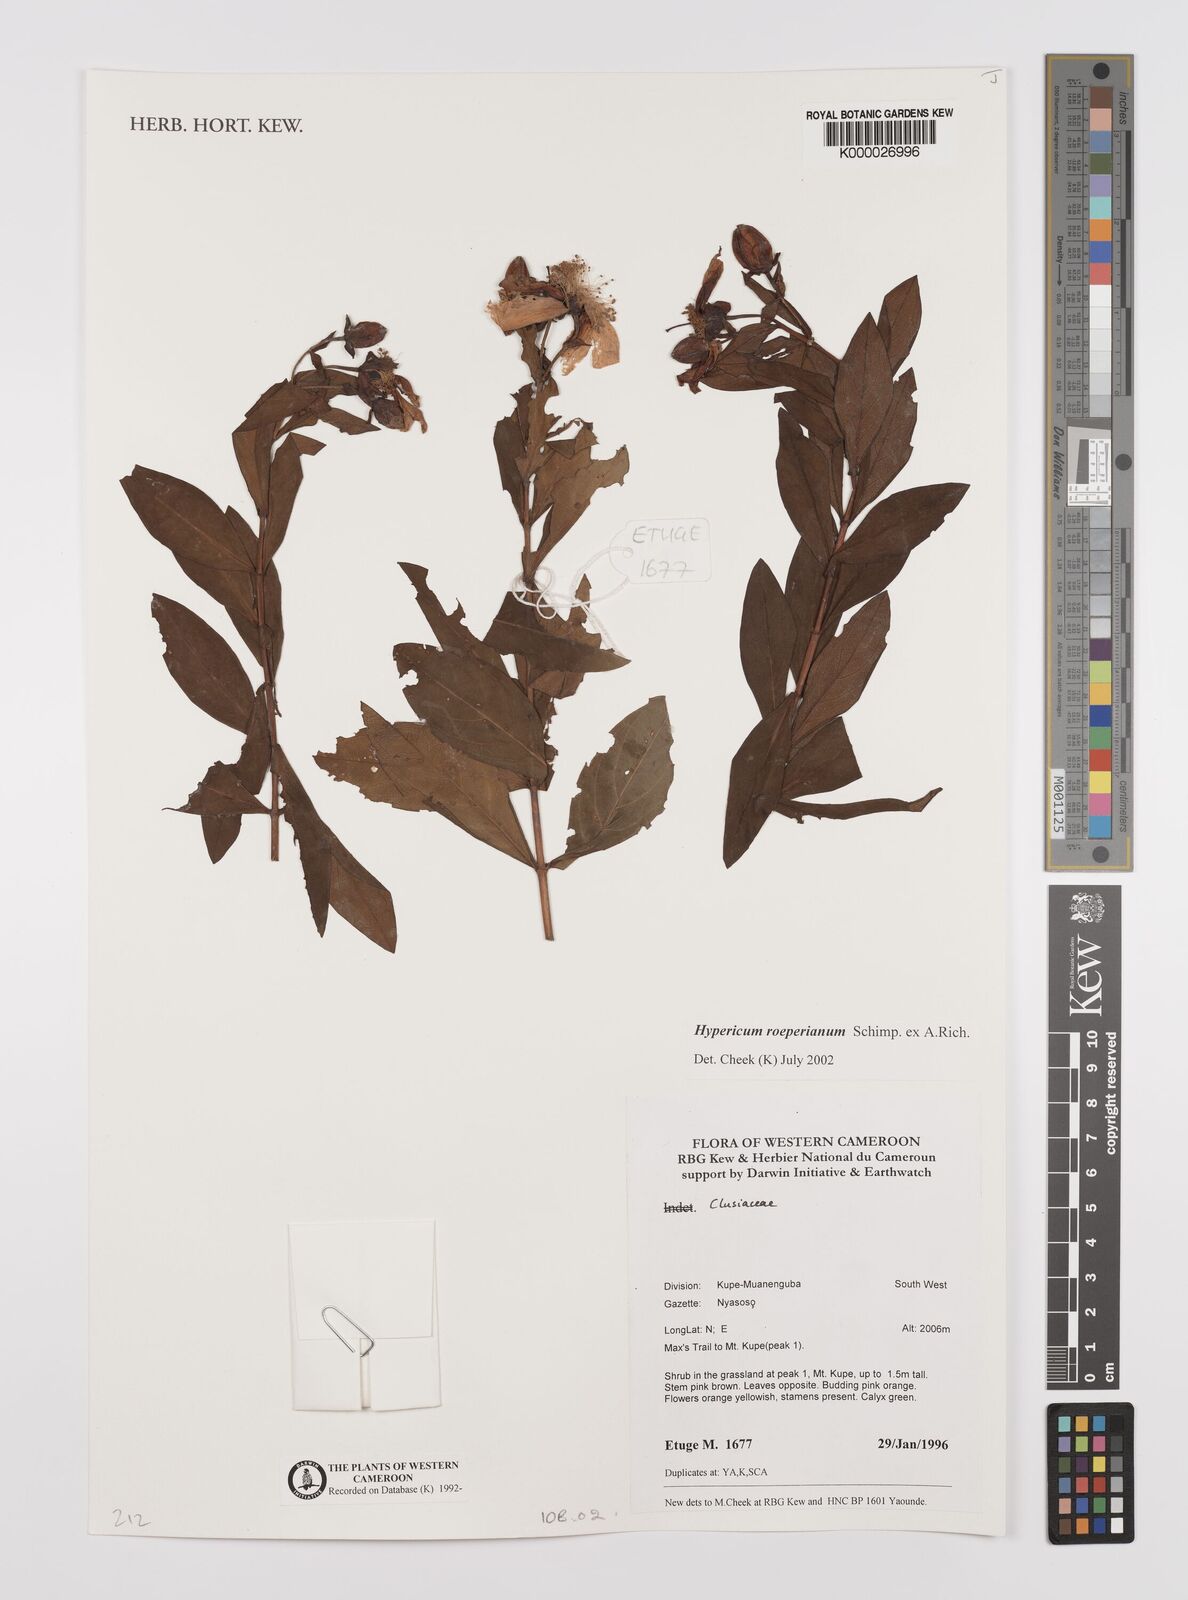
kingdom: Plantae
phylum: Tracheophyta
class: Magnoliopsida
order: Malpighiales
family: Hypericaceae
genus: Hypericum
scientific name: Hypericum roeperianum
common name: Large-leaved curry-bush
